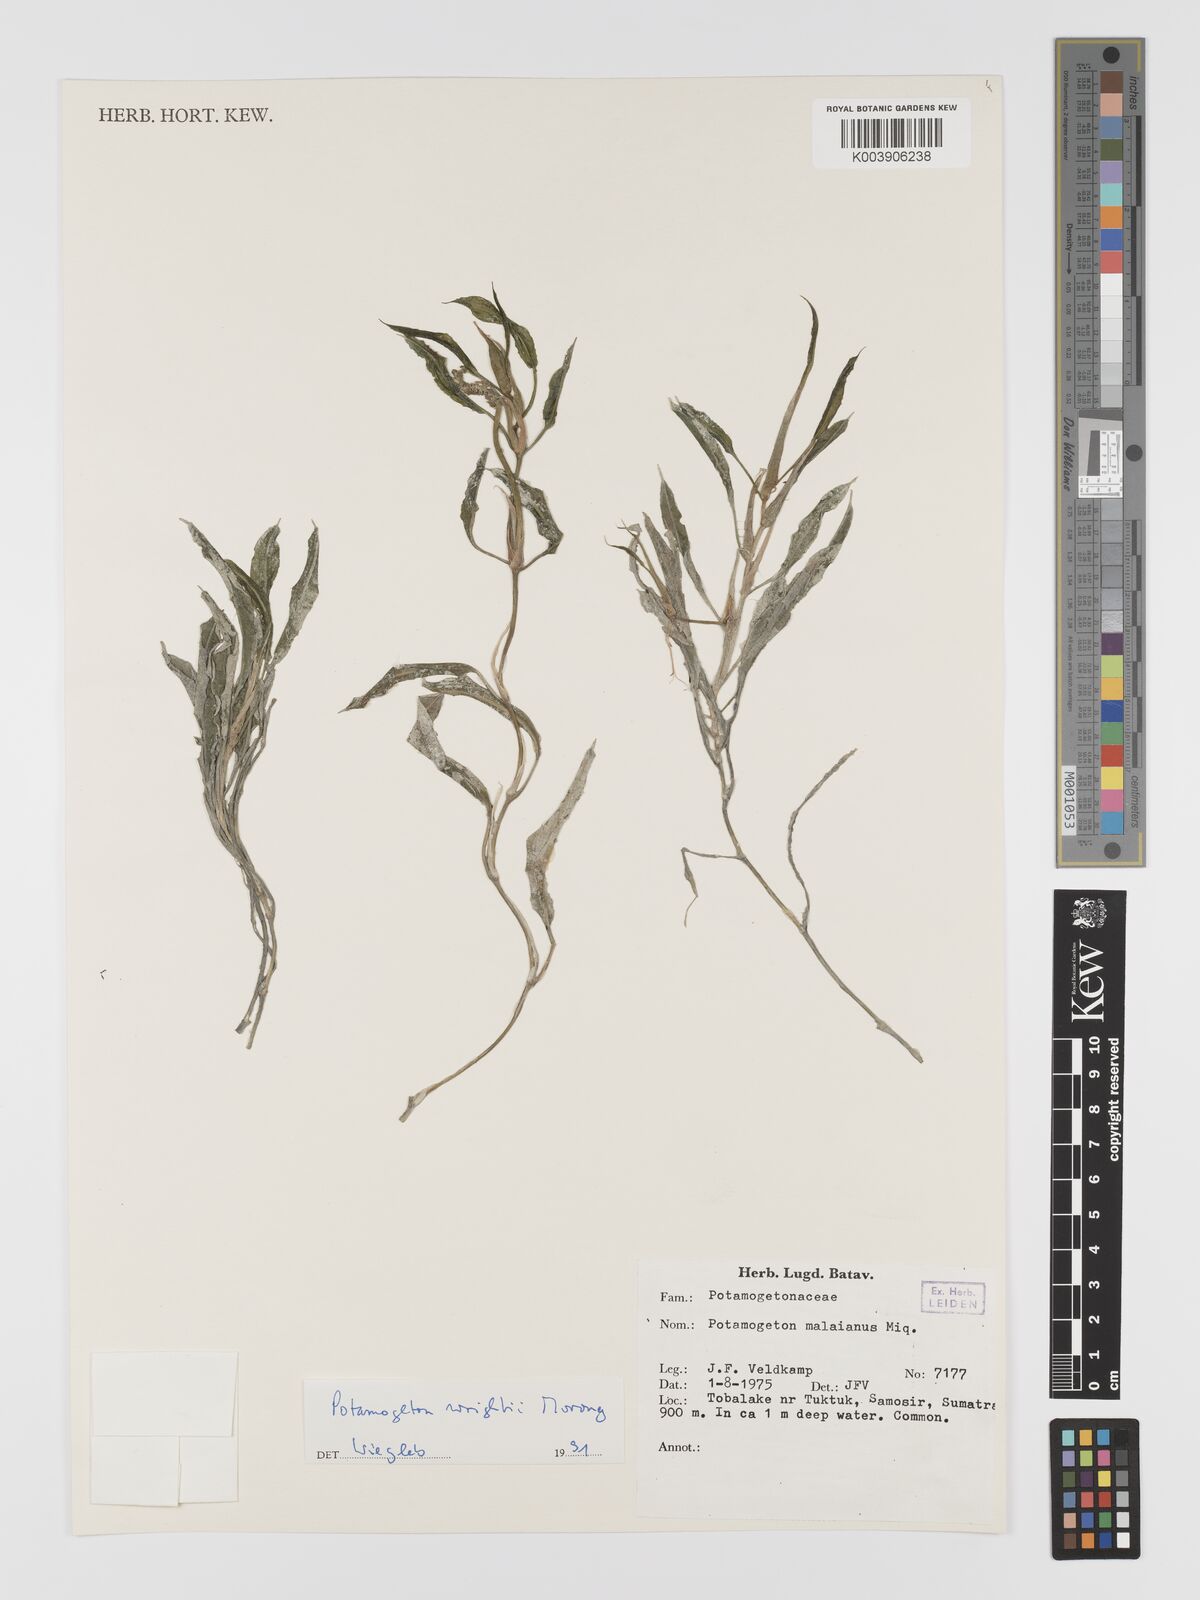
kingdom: Plantae
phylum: Tracheophyta
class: Liliopsida
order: Alismatales
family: Potamogetonaceae
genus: Potamogeton
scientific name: Potamogeton wrightii
